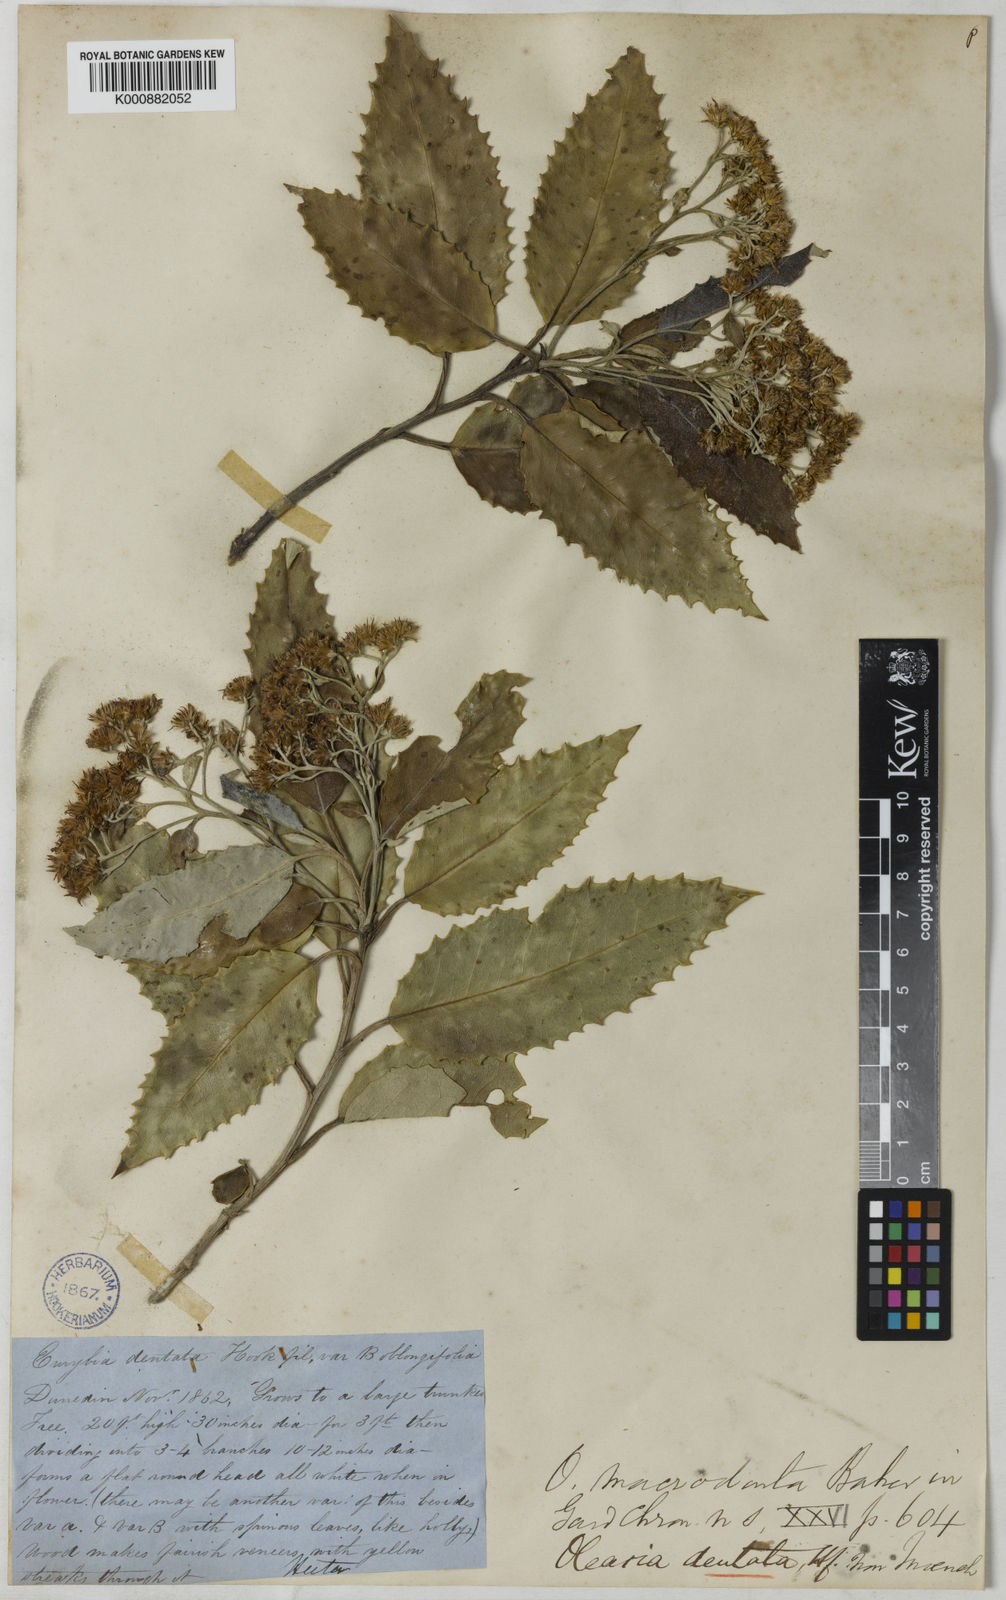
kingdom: Plantae
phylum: Tracheophyta
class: Magnoliopsida
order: Asterales
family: Asteraceae
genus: Olearia
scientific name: Olearia macrodonta
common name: New zealand holly
